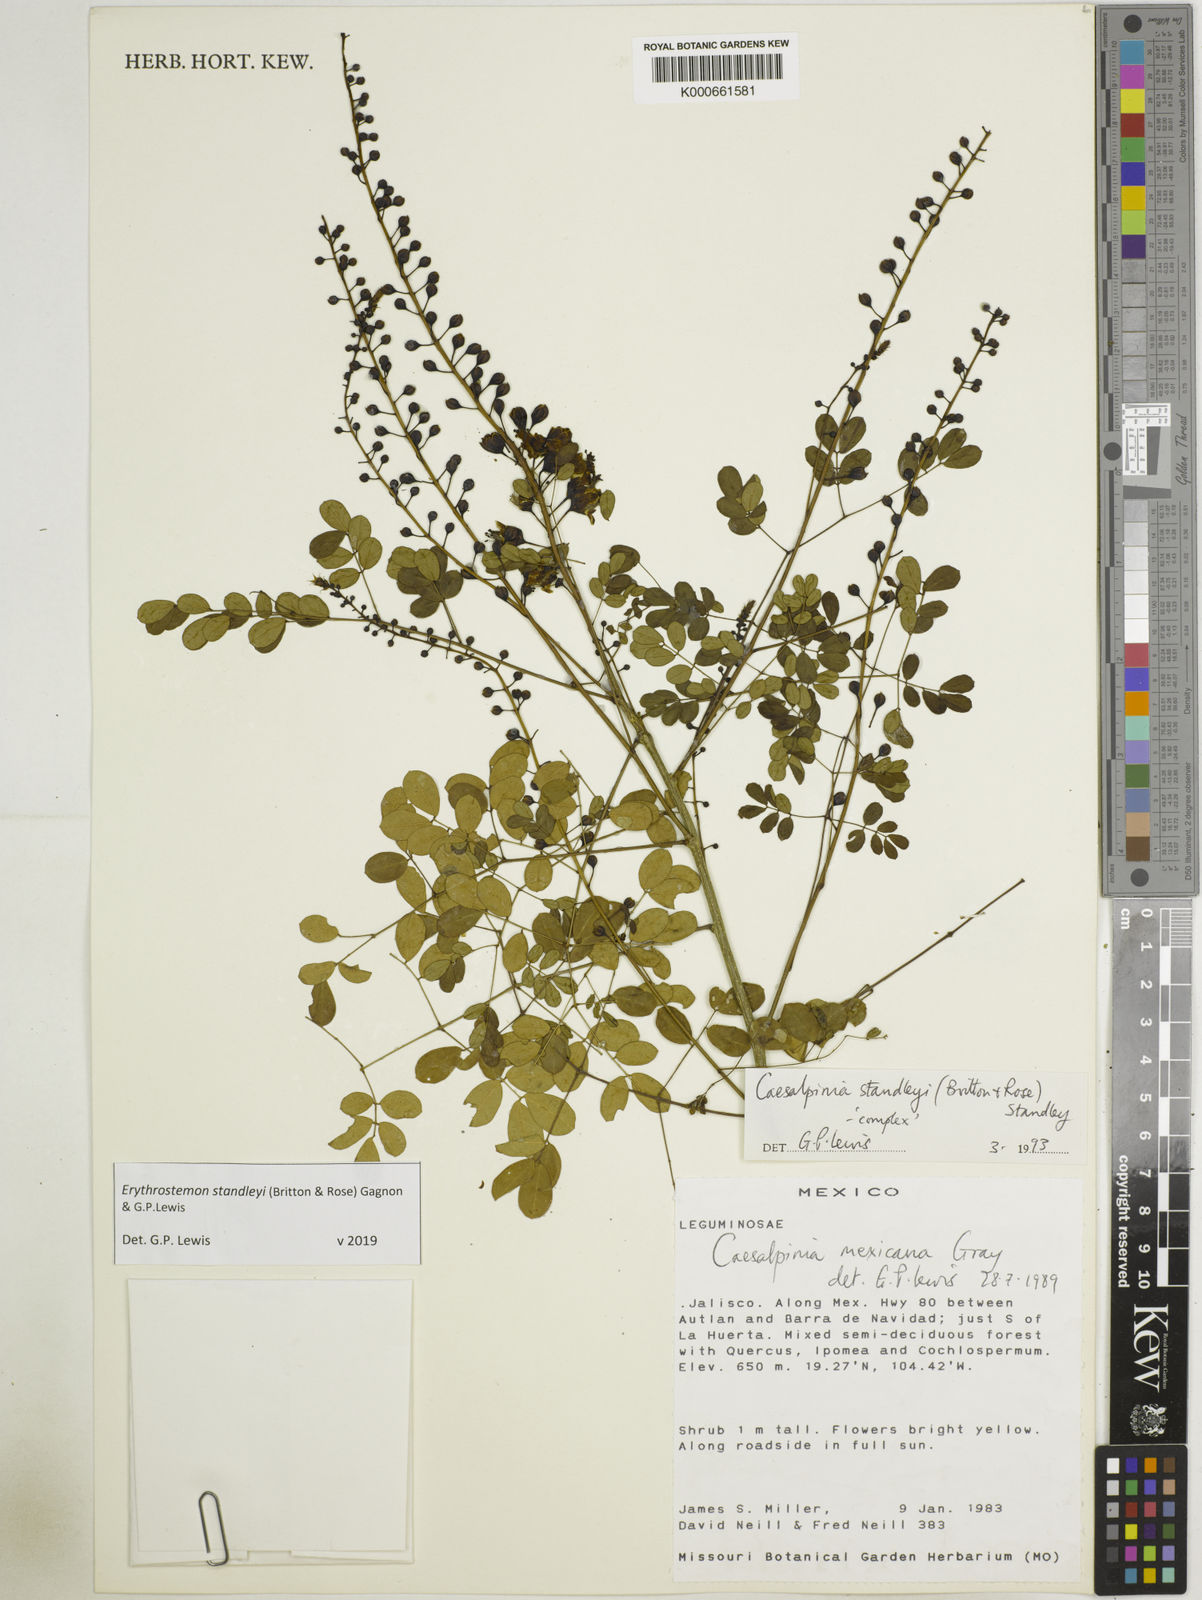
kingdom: Plantae
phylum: Tracheophyta
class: Magnoliopsida
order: Fabales
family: Fabaceae
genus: Erythrostemon
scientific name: Erythrostemon standleyi
